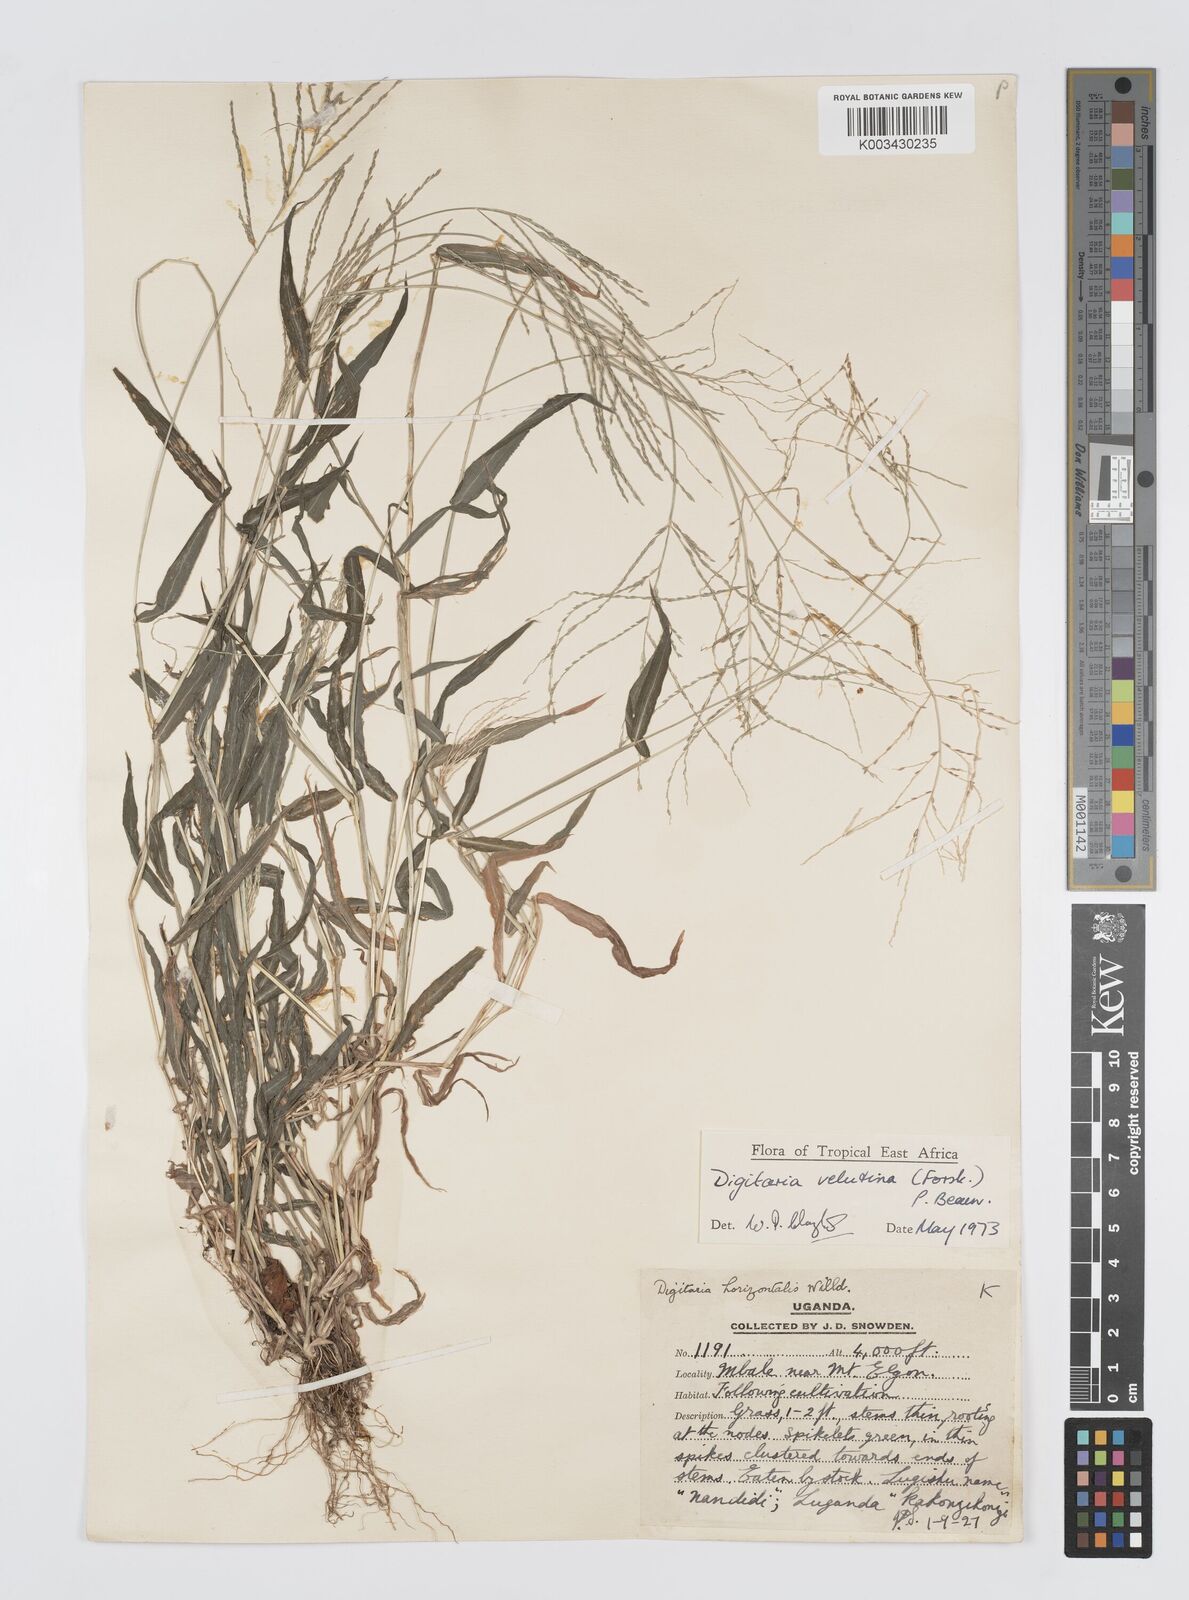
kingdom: Plantae
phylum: Tracheophyta
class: Liliopsida
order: Poales
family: Poaceae
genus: Digitaria
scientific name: Digitaria velutina
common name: Long-plume finger grass
